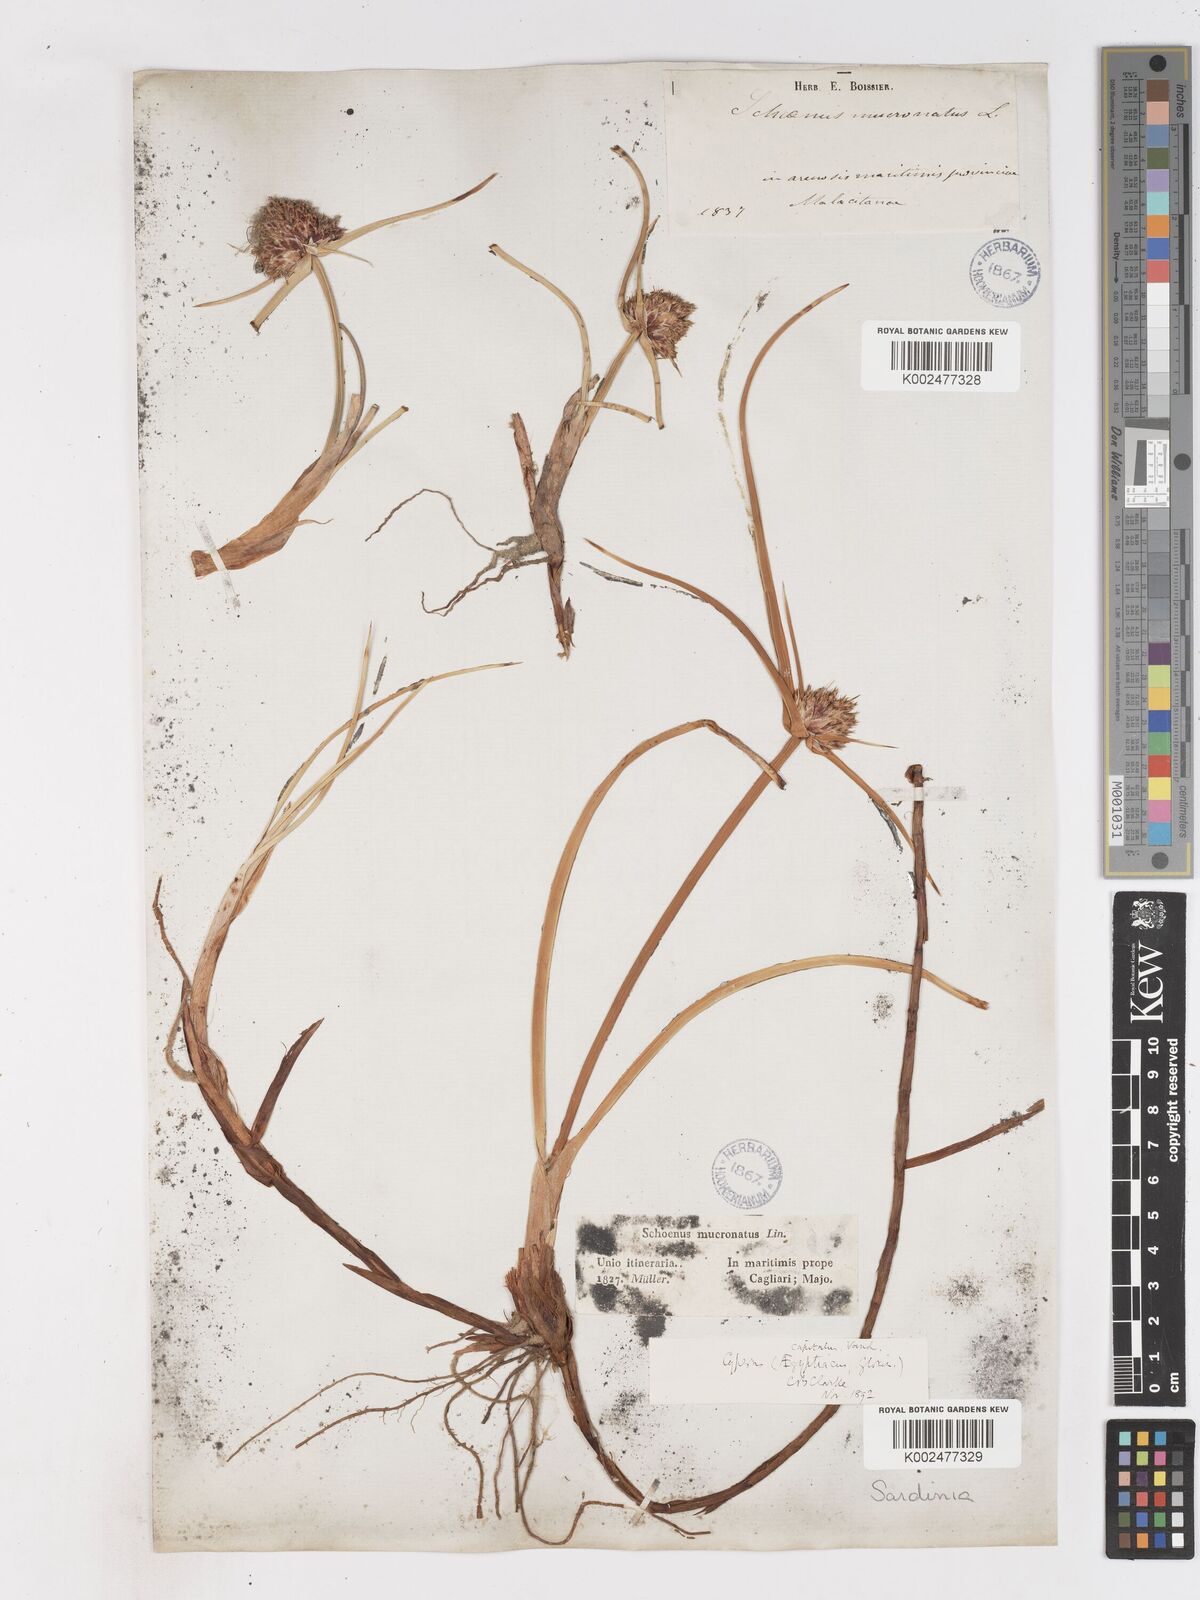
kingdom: Plantae
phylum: Tracheophyta
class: Liliopsida
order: Poales
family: Cyperaceae
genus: Cyperus
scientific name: Cyperus capitatus
